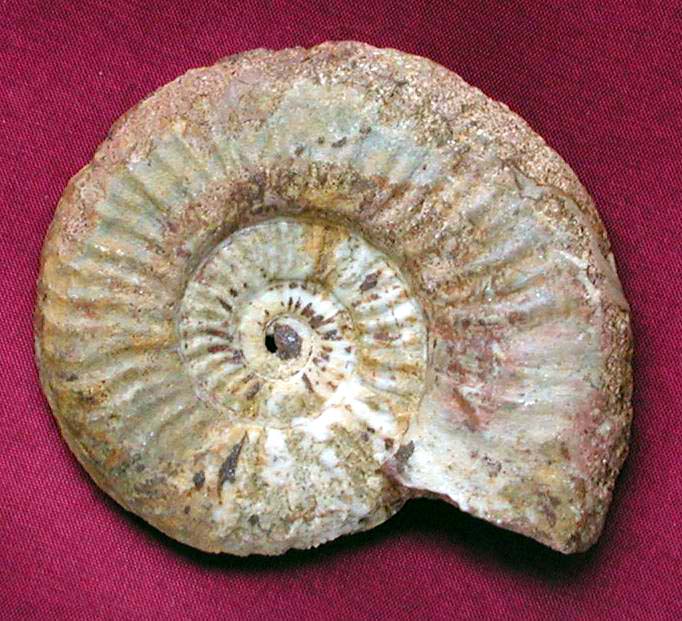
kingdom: Animalia
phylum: Mollusca
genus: Walkericeras
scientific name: Walkericeras
